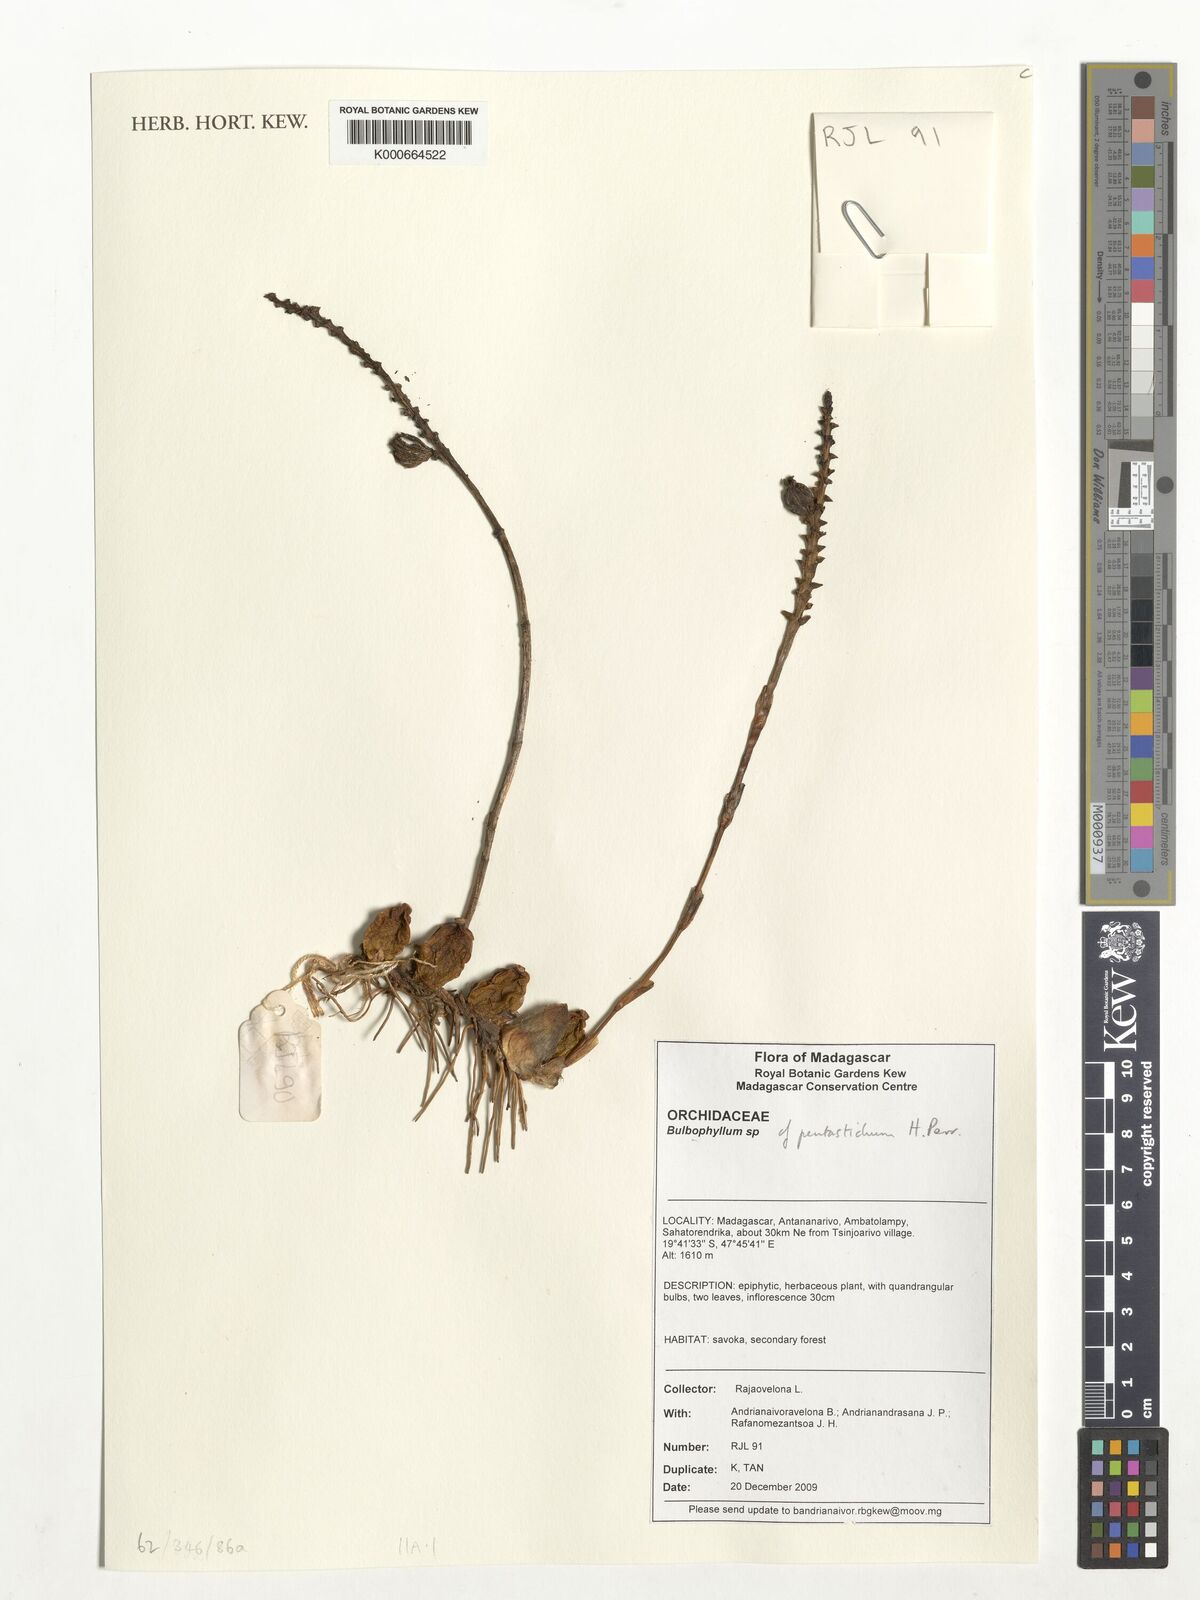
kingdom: Plantae
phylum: Tracheophyta
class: Liliopsida
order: Asparagales
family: Orchidaceae
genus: Bulbophyllum
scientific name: Bulbophyllum
